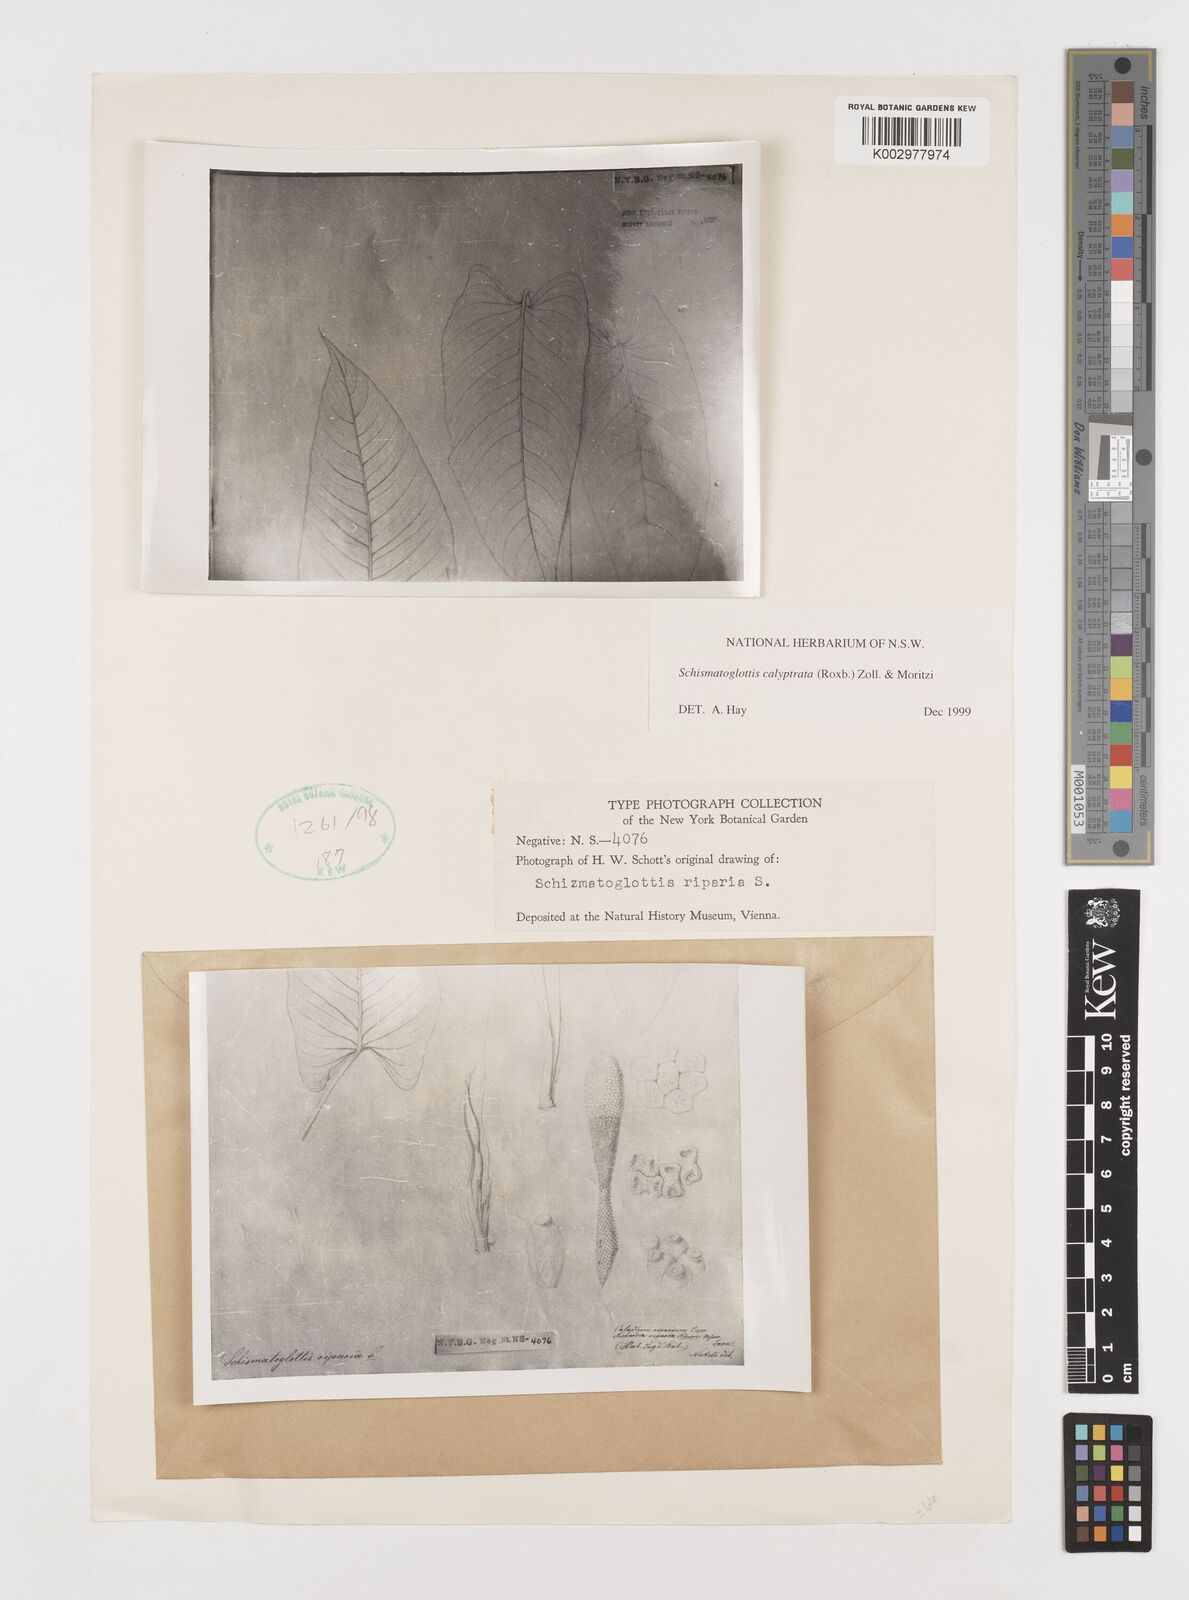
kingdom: Plantae
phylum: Tracheophyta
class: Liliopsida
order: Alismatales
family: Araceae
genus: Schismatoglottis
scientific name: Schismatoglottis calyptrata
